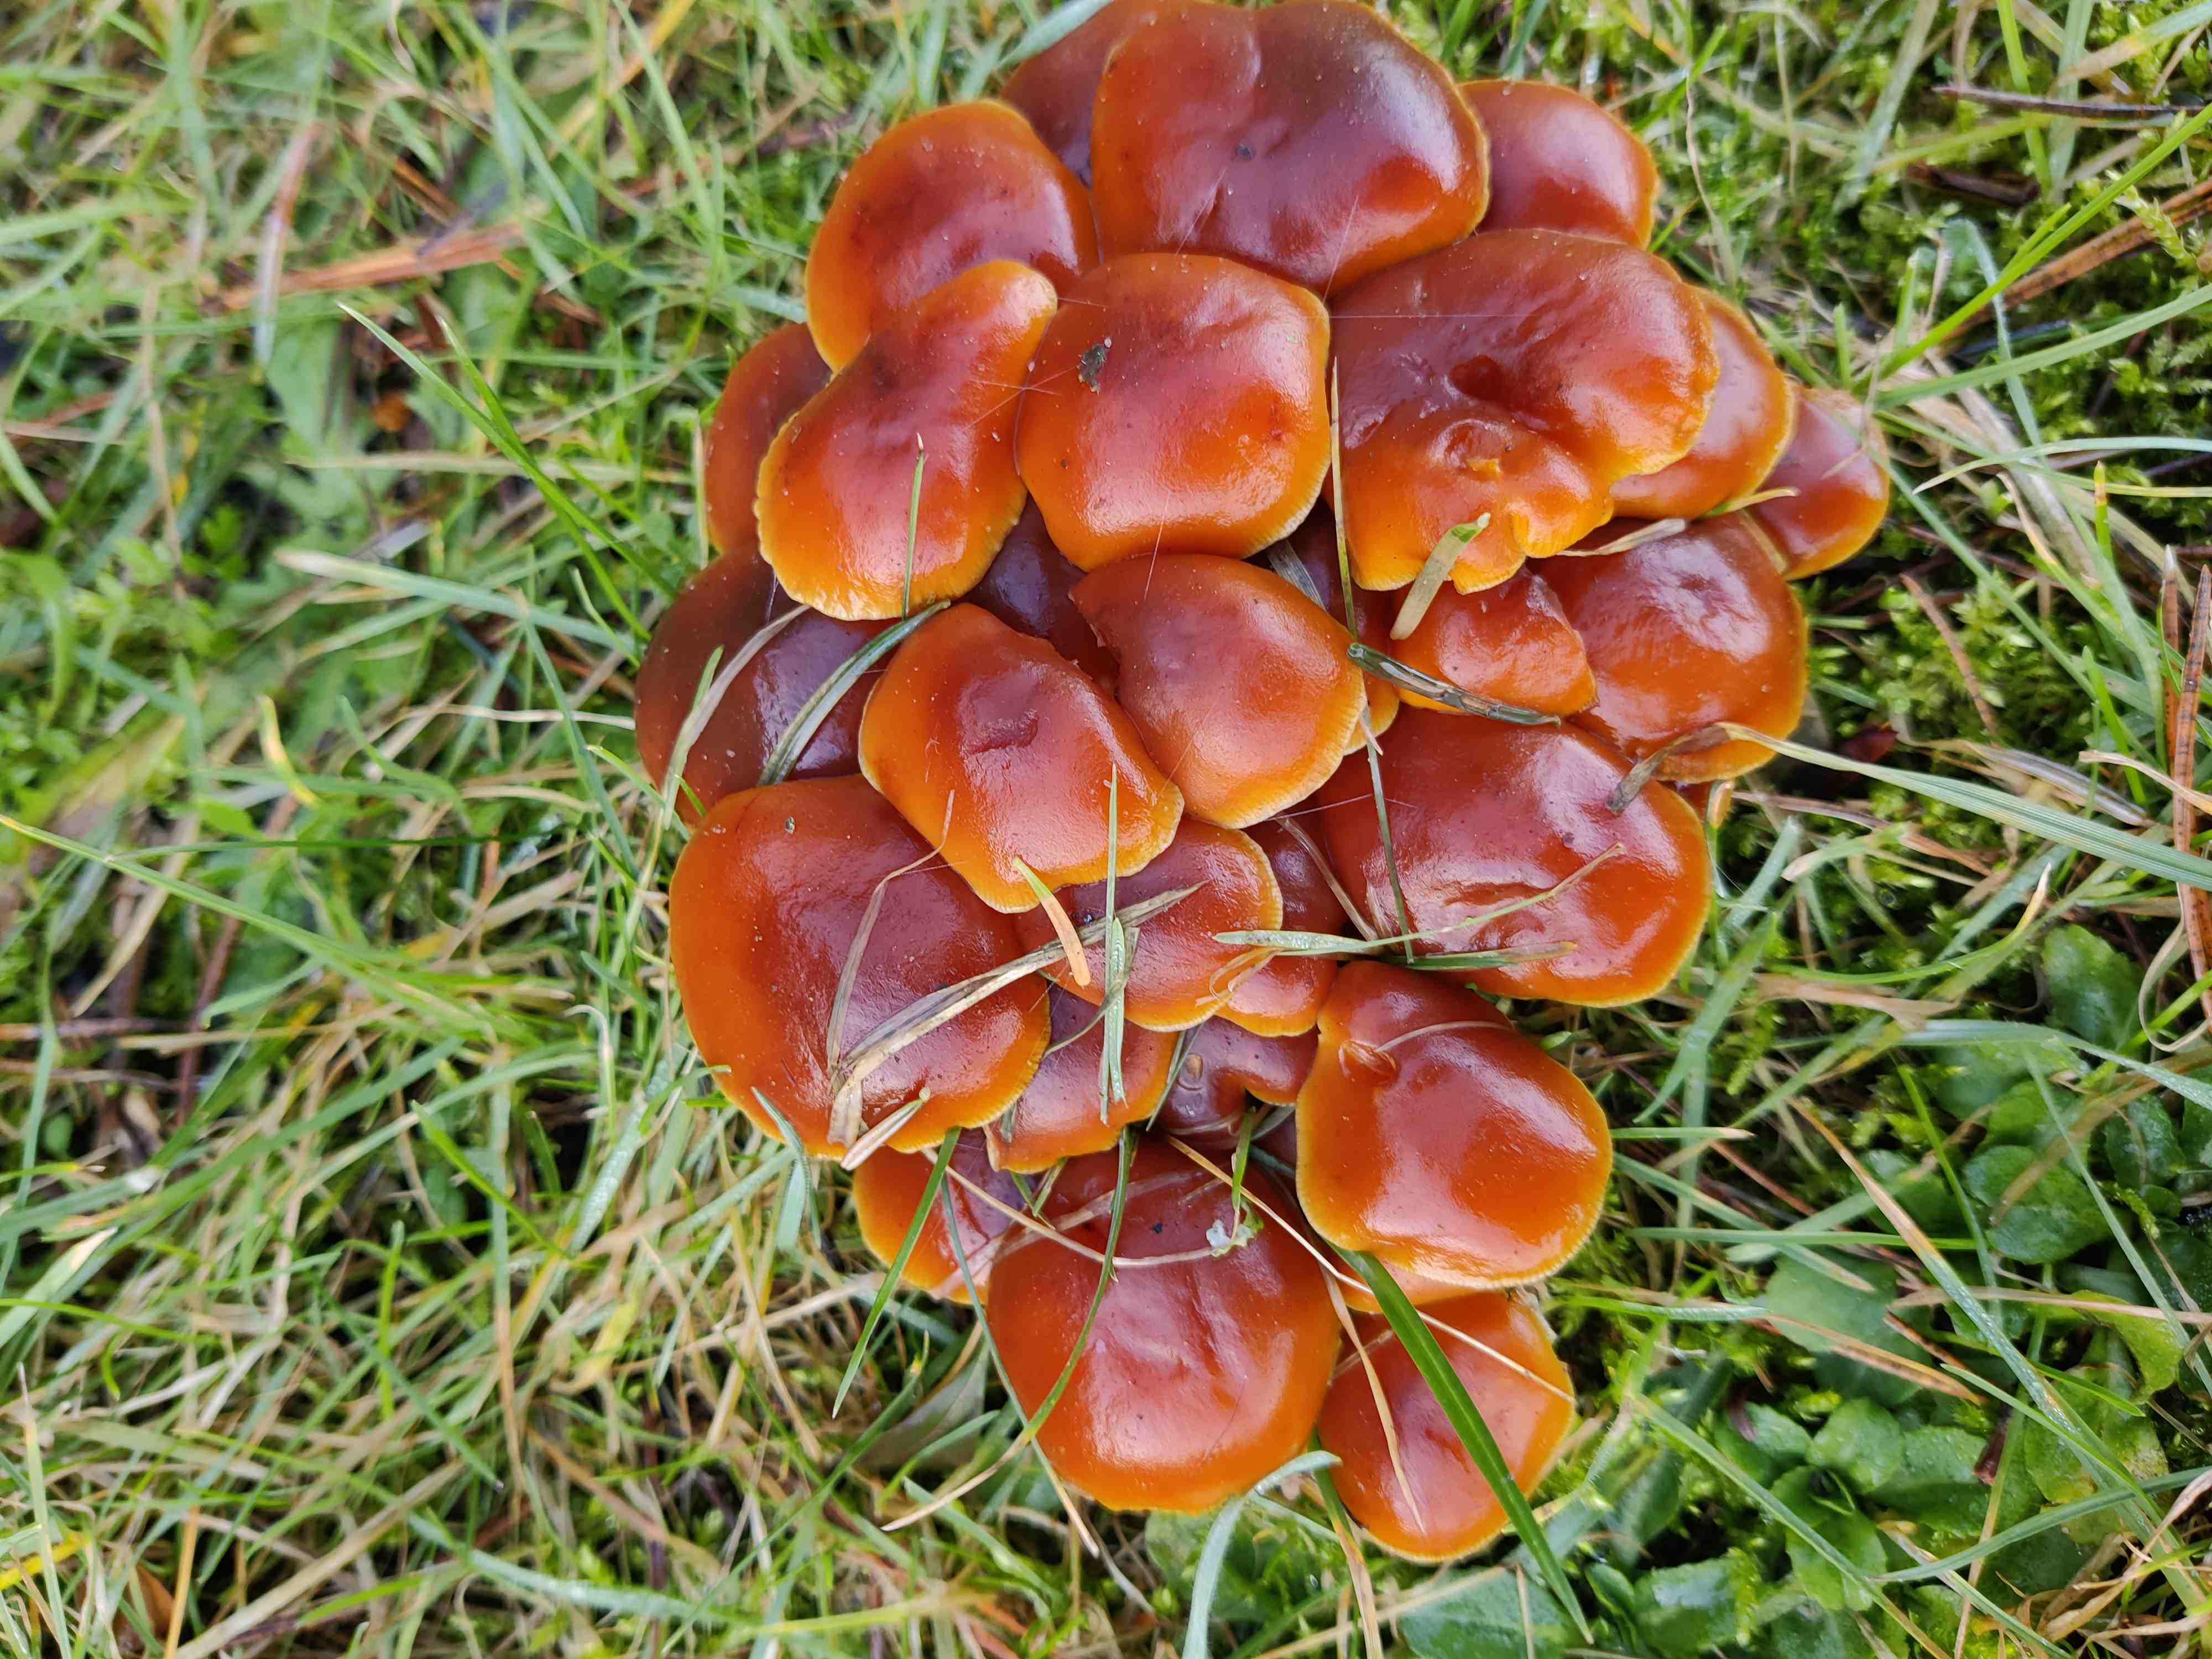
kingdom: Fungi
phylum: Basidiomycota
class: Agaricomycetes
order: Agaricales
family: Physalacriaceae
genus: Flammulina
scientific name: Flammulina
